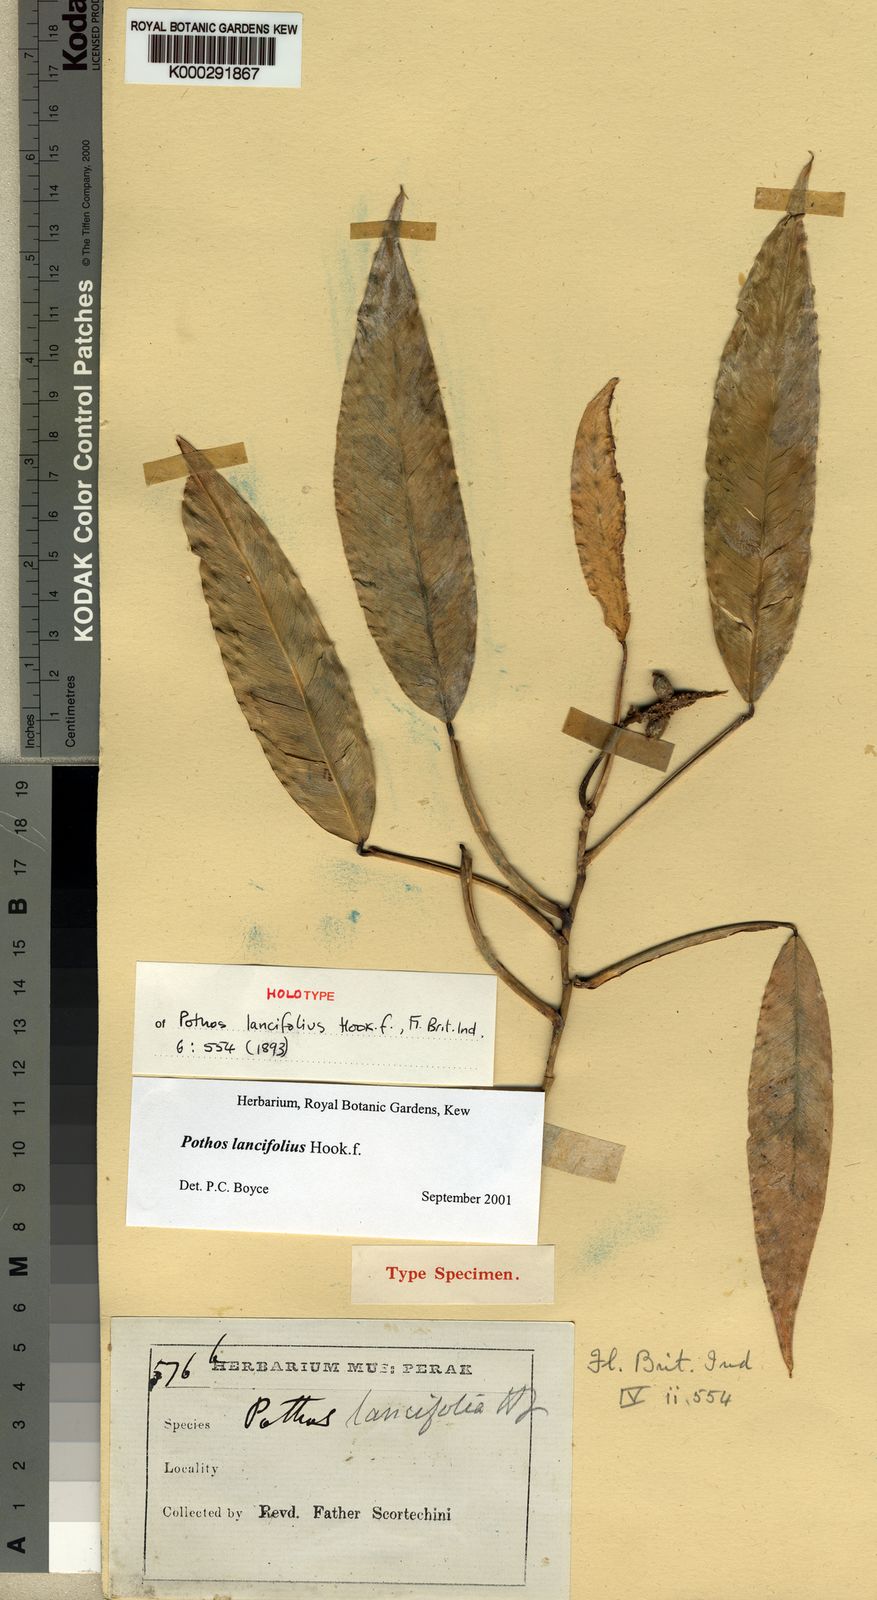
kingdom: Plantae
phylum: Tracheophyta
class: Liliopsida
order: Alismatales
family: Araceae
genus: Pothos
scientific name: Pothos lancifolius
